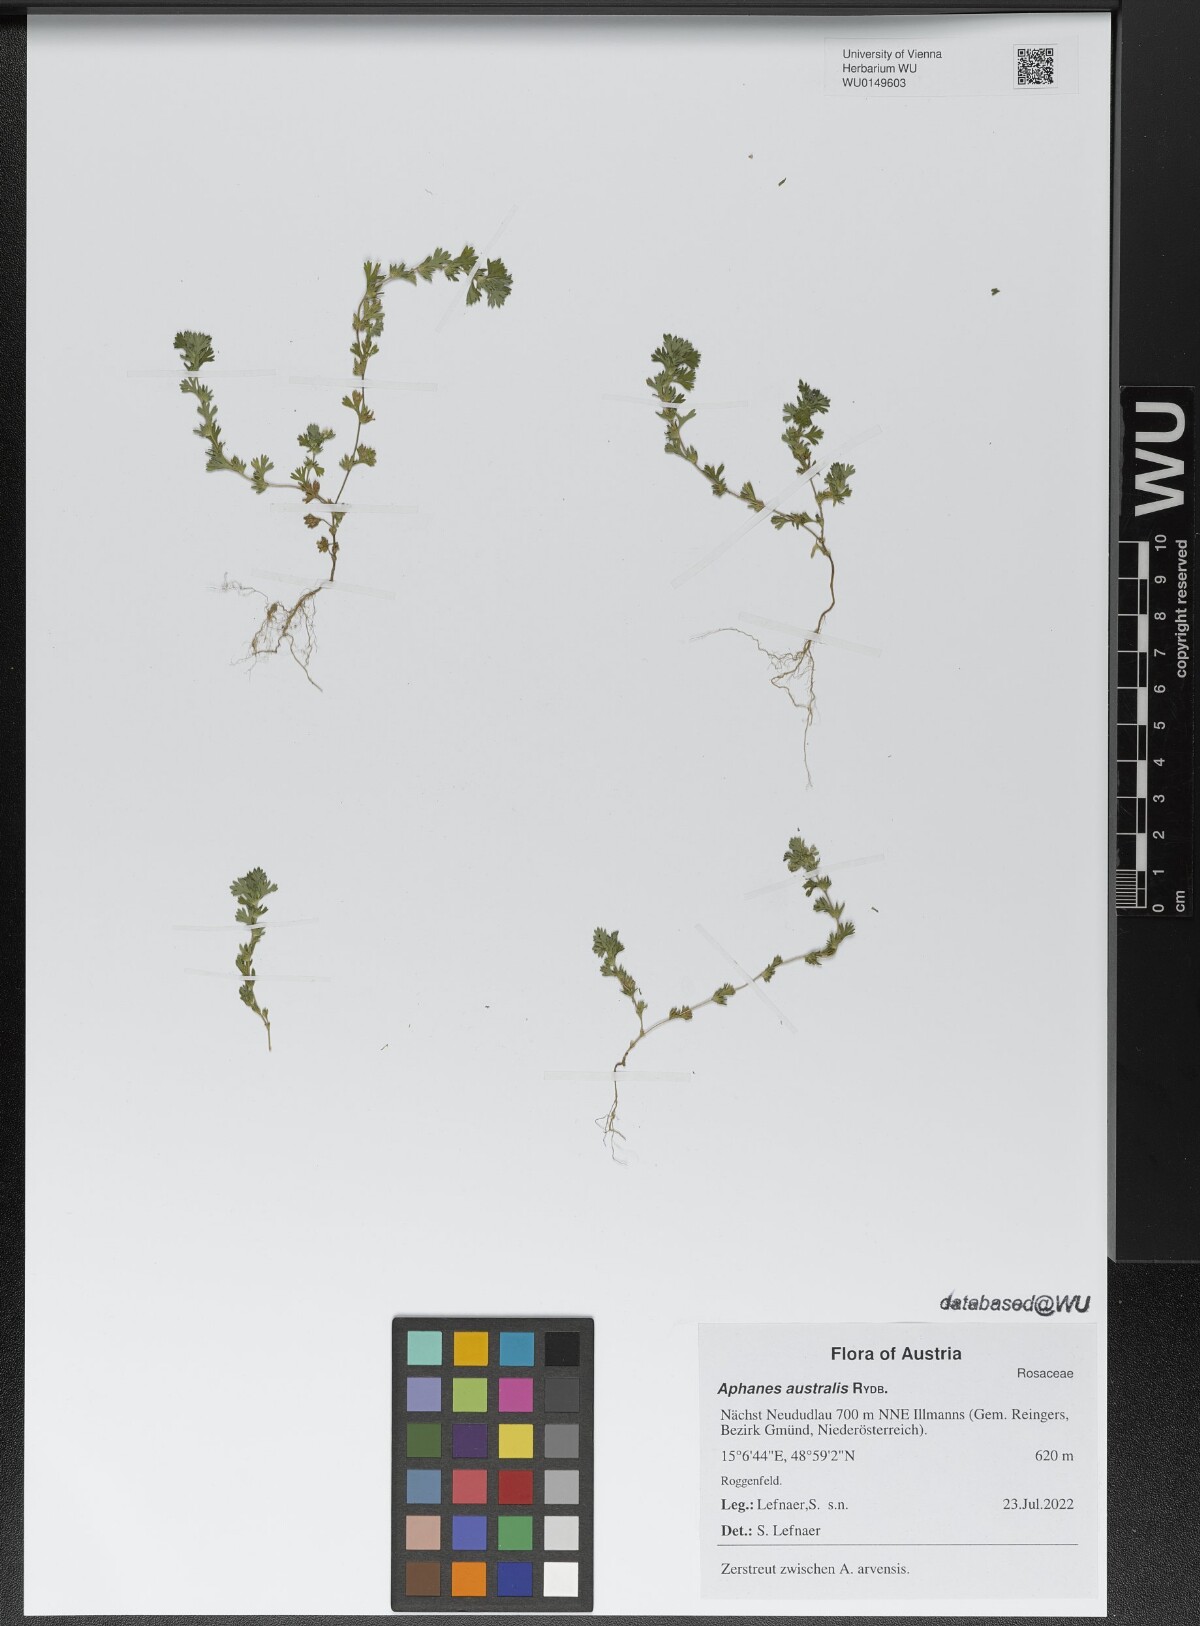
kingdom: Plantae
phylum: Tracheophyta
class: Magnoliopsida
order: Rosales
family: Rosaceae
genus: Aphanes
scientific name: Aphanes australis
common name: Slender parsley-piert
